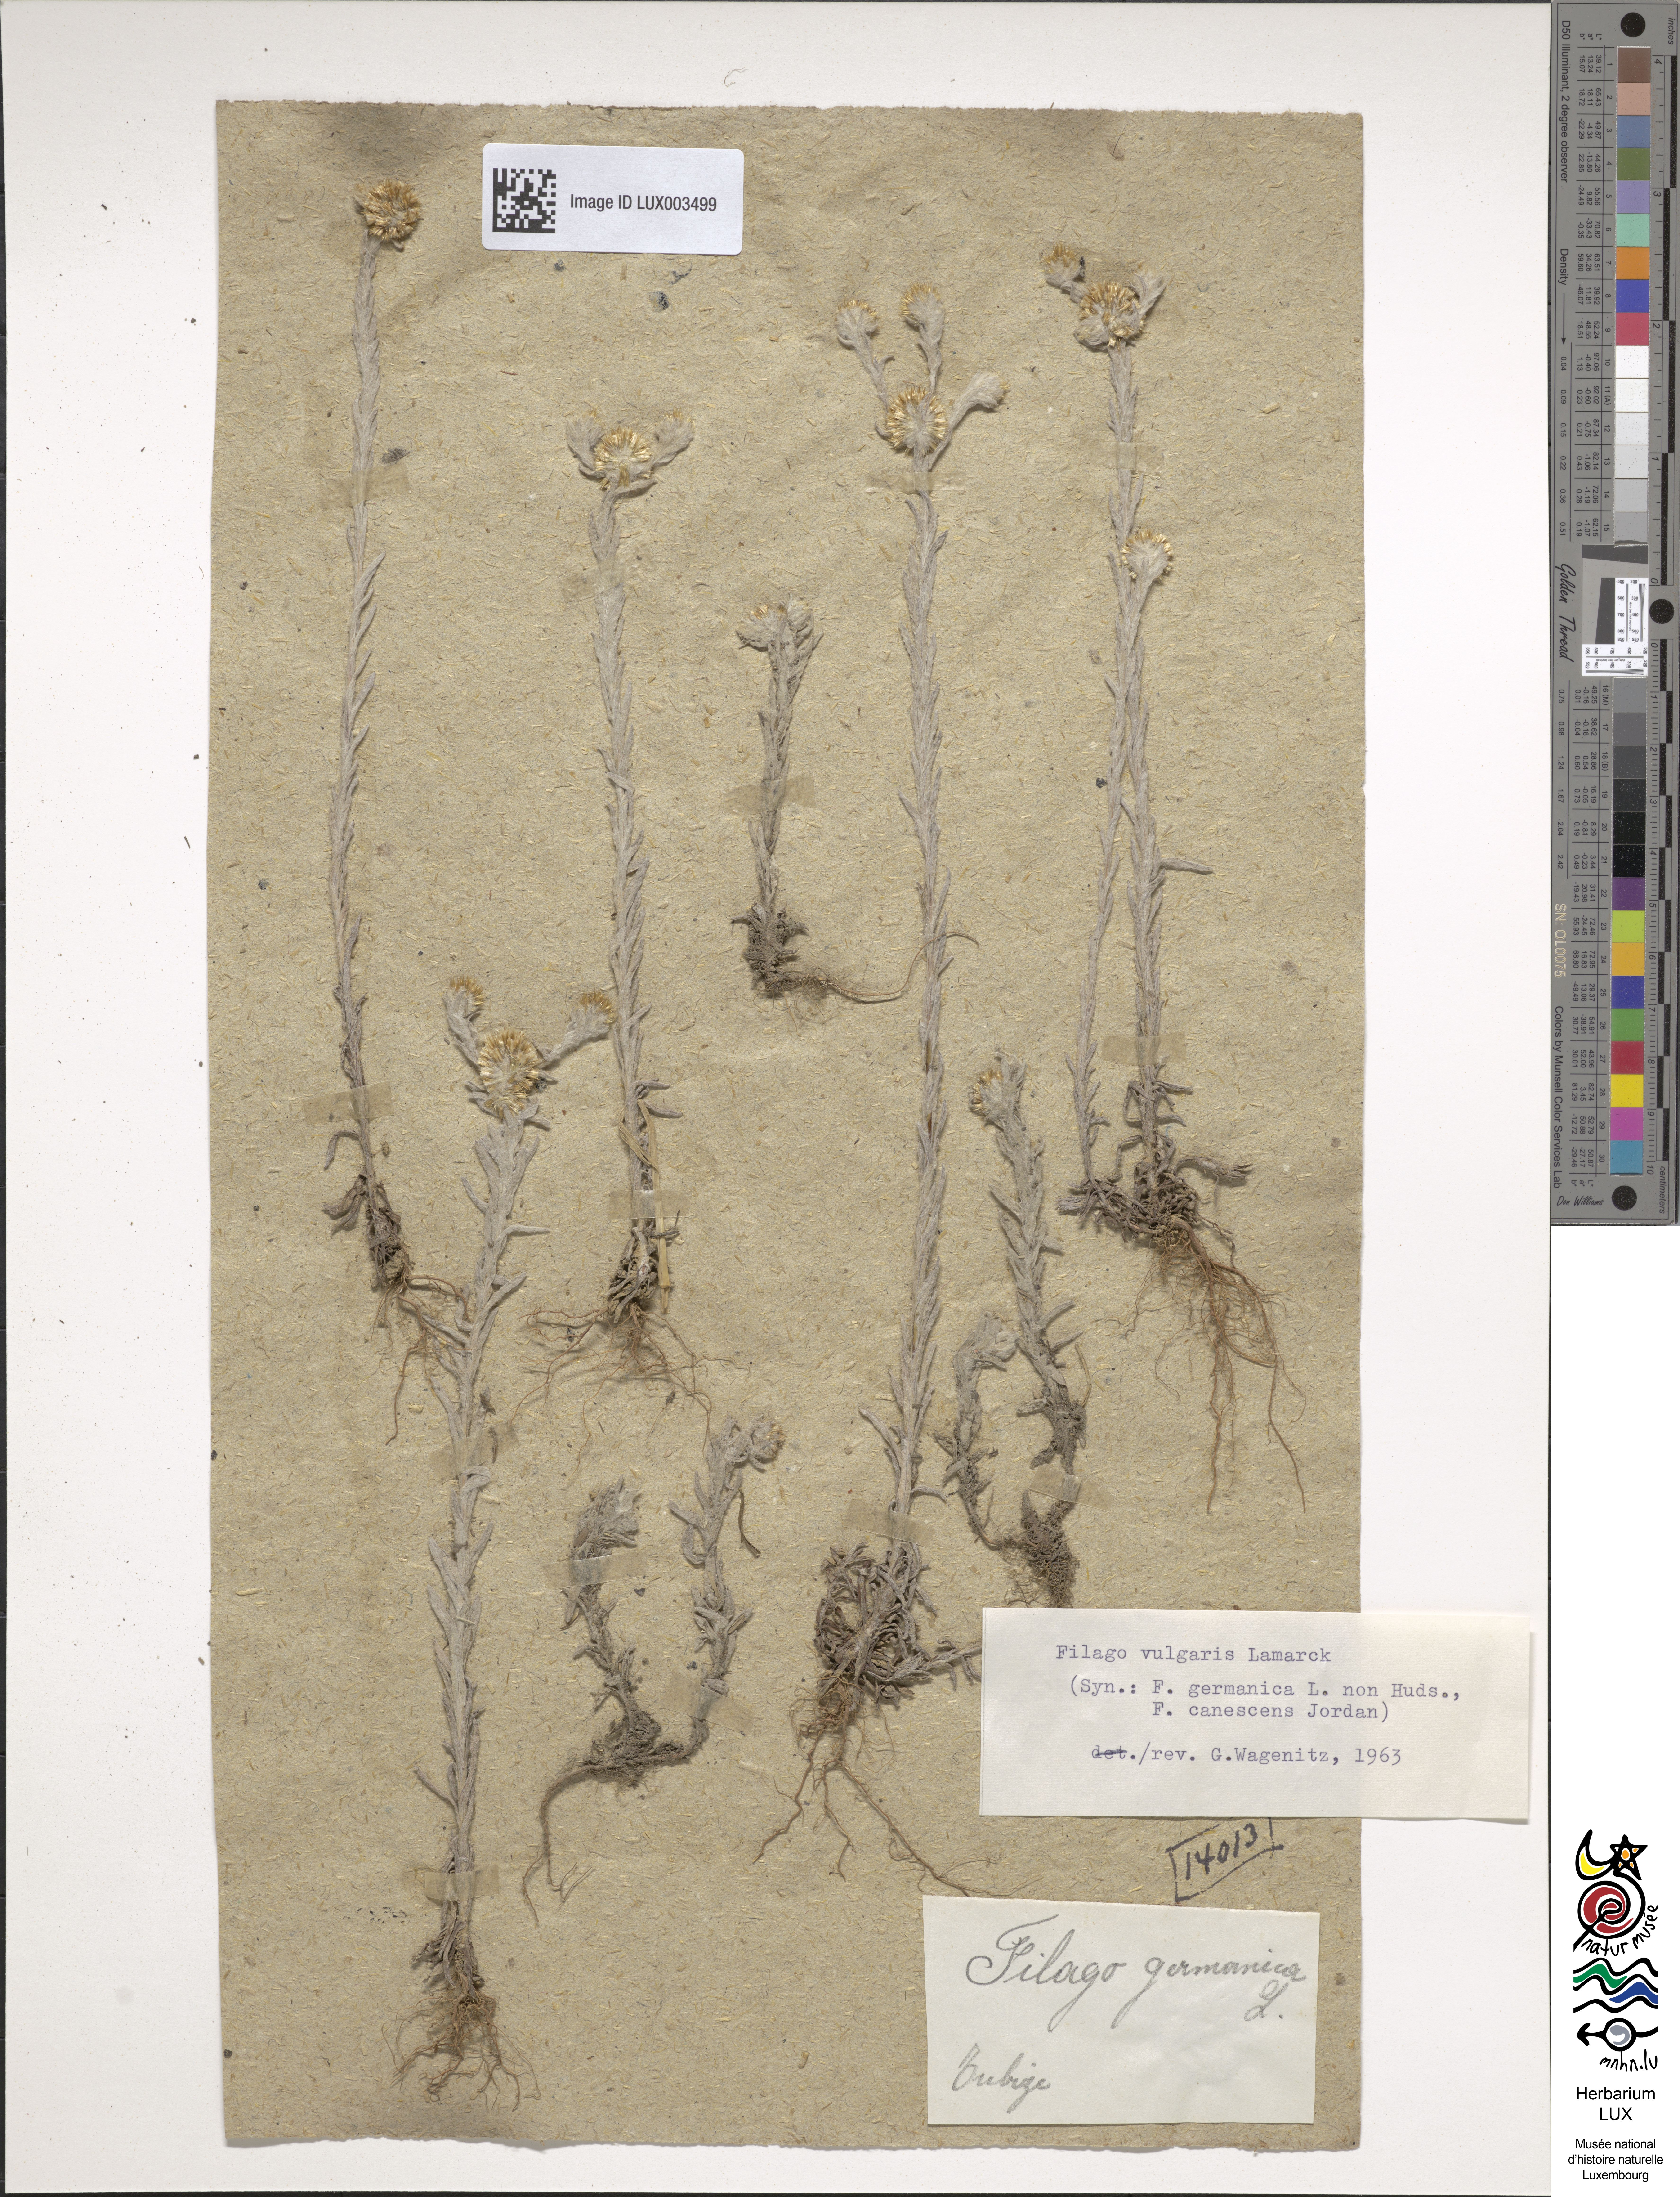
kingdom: Plantae
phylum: Tracheophyta
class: Magnoliopsida
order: Asterales
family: Asteraceae
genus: Filago
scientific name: Filago germanica
